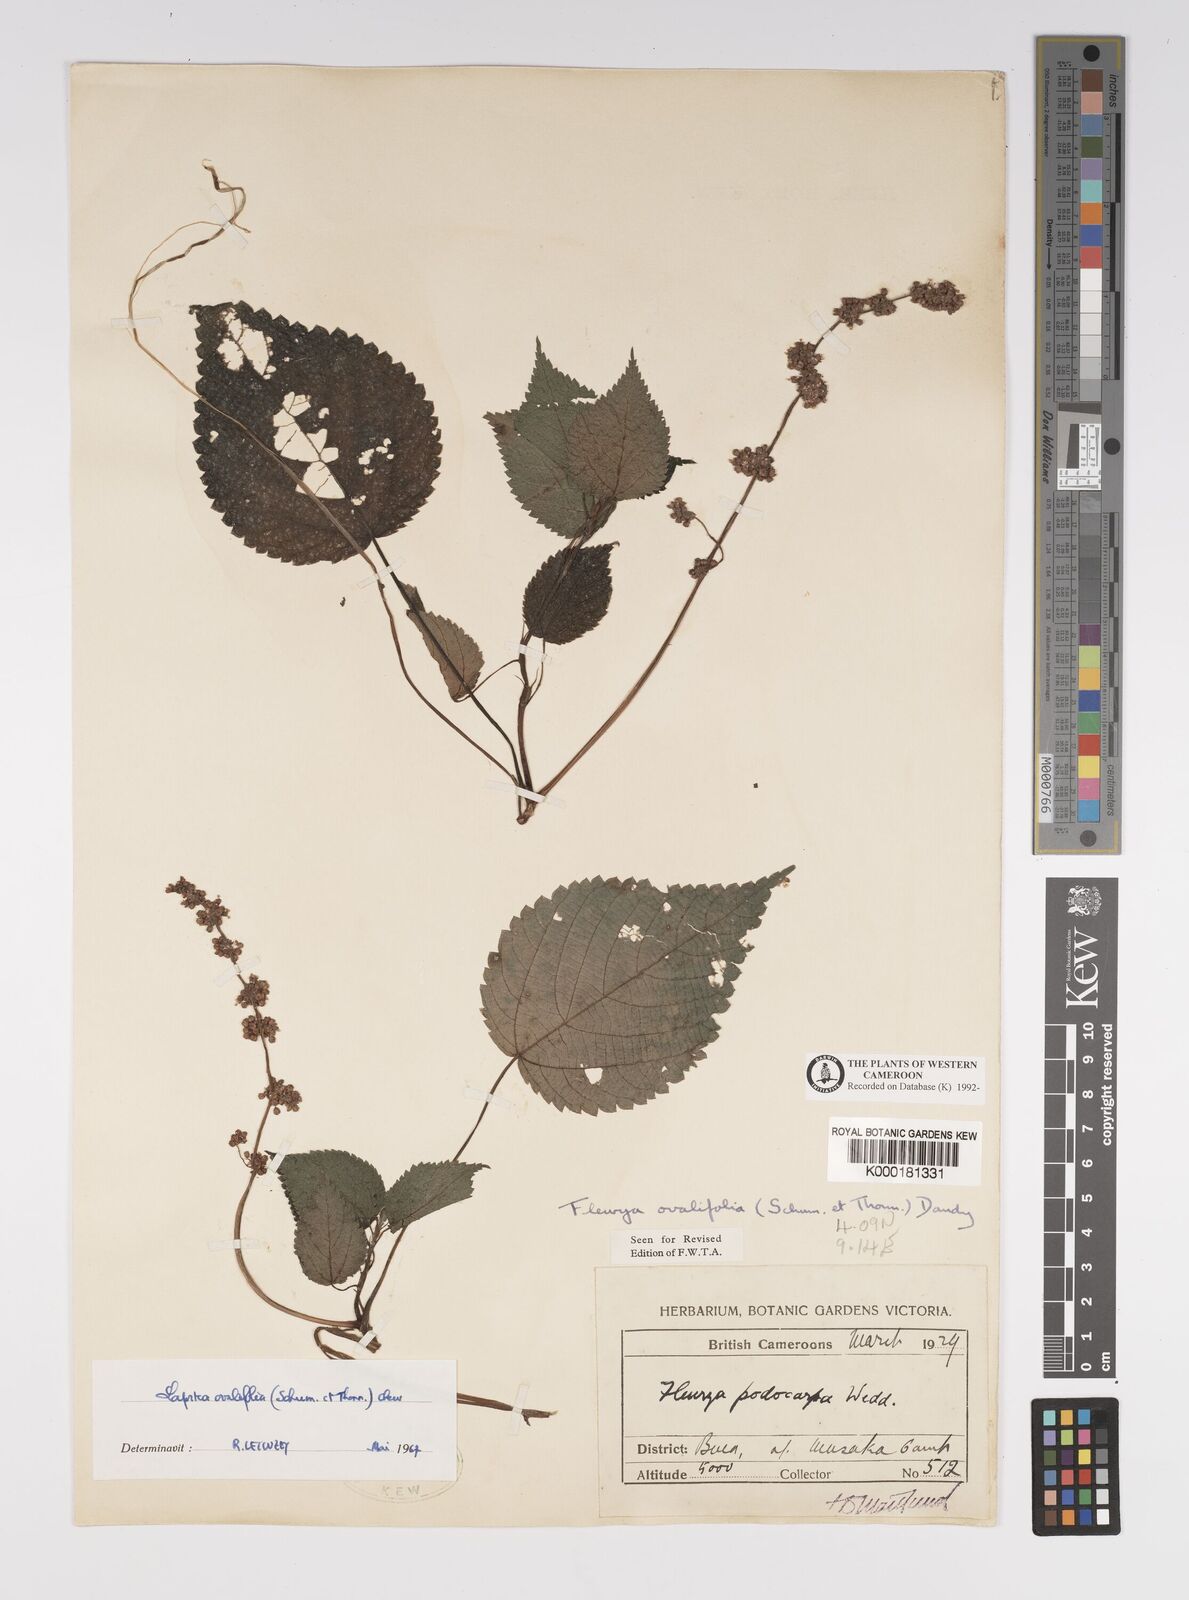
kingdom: Plantae
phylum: Tracheophyta
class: Magnoliopsida
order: Rosales
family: Urticaceae
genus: Laportea
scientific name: Laportea ovalifolia
